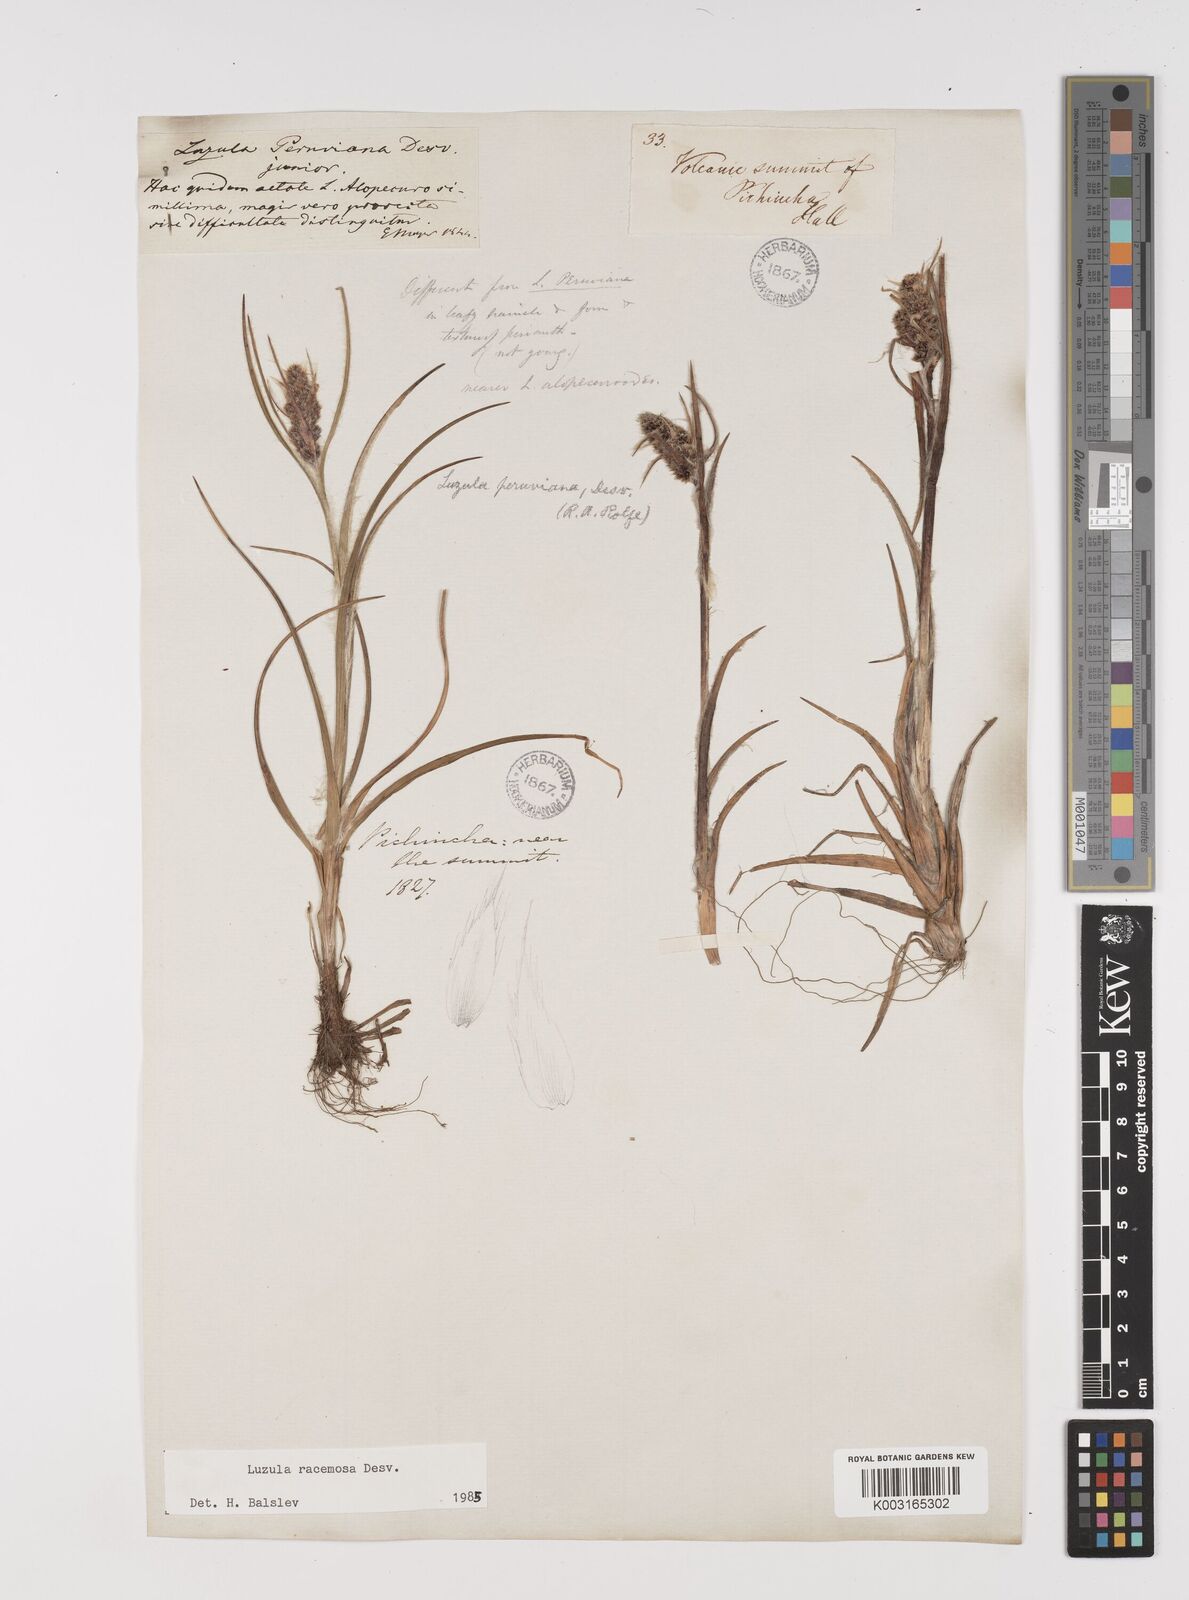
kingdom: Plantae
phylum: Tracheophyta
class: Liliopsida
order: Poales
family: Juncaceae
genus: Luzula
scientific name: Luzula racemosa
